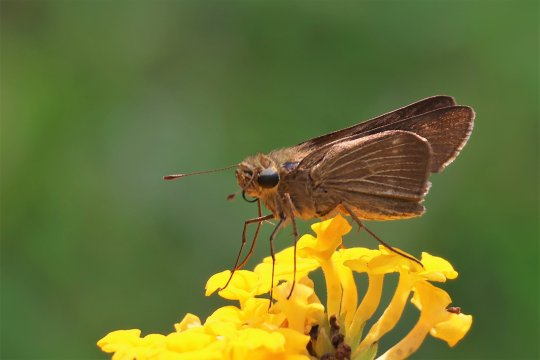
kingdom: Animalia
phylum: Arthropoda
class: Insecta
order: Lepidoptera
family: Hesperiidae
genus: Panoquina
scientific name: Panoquina ocola
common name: Ocola Skipper
